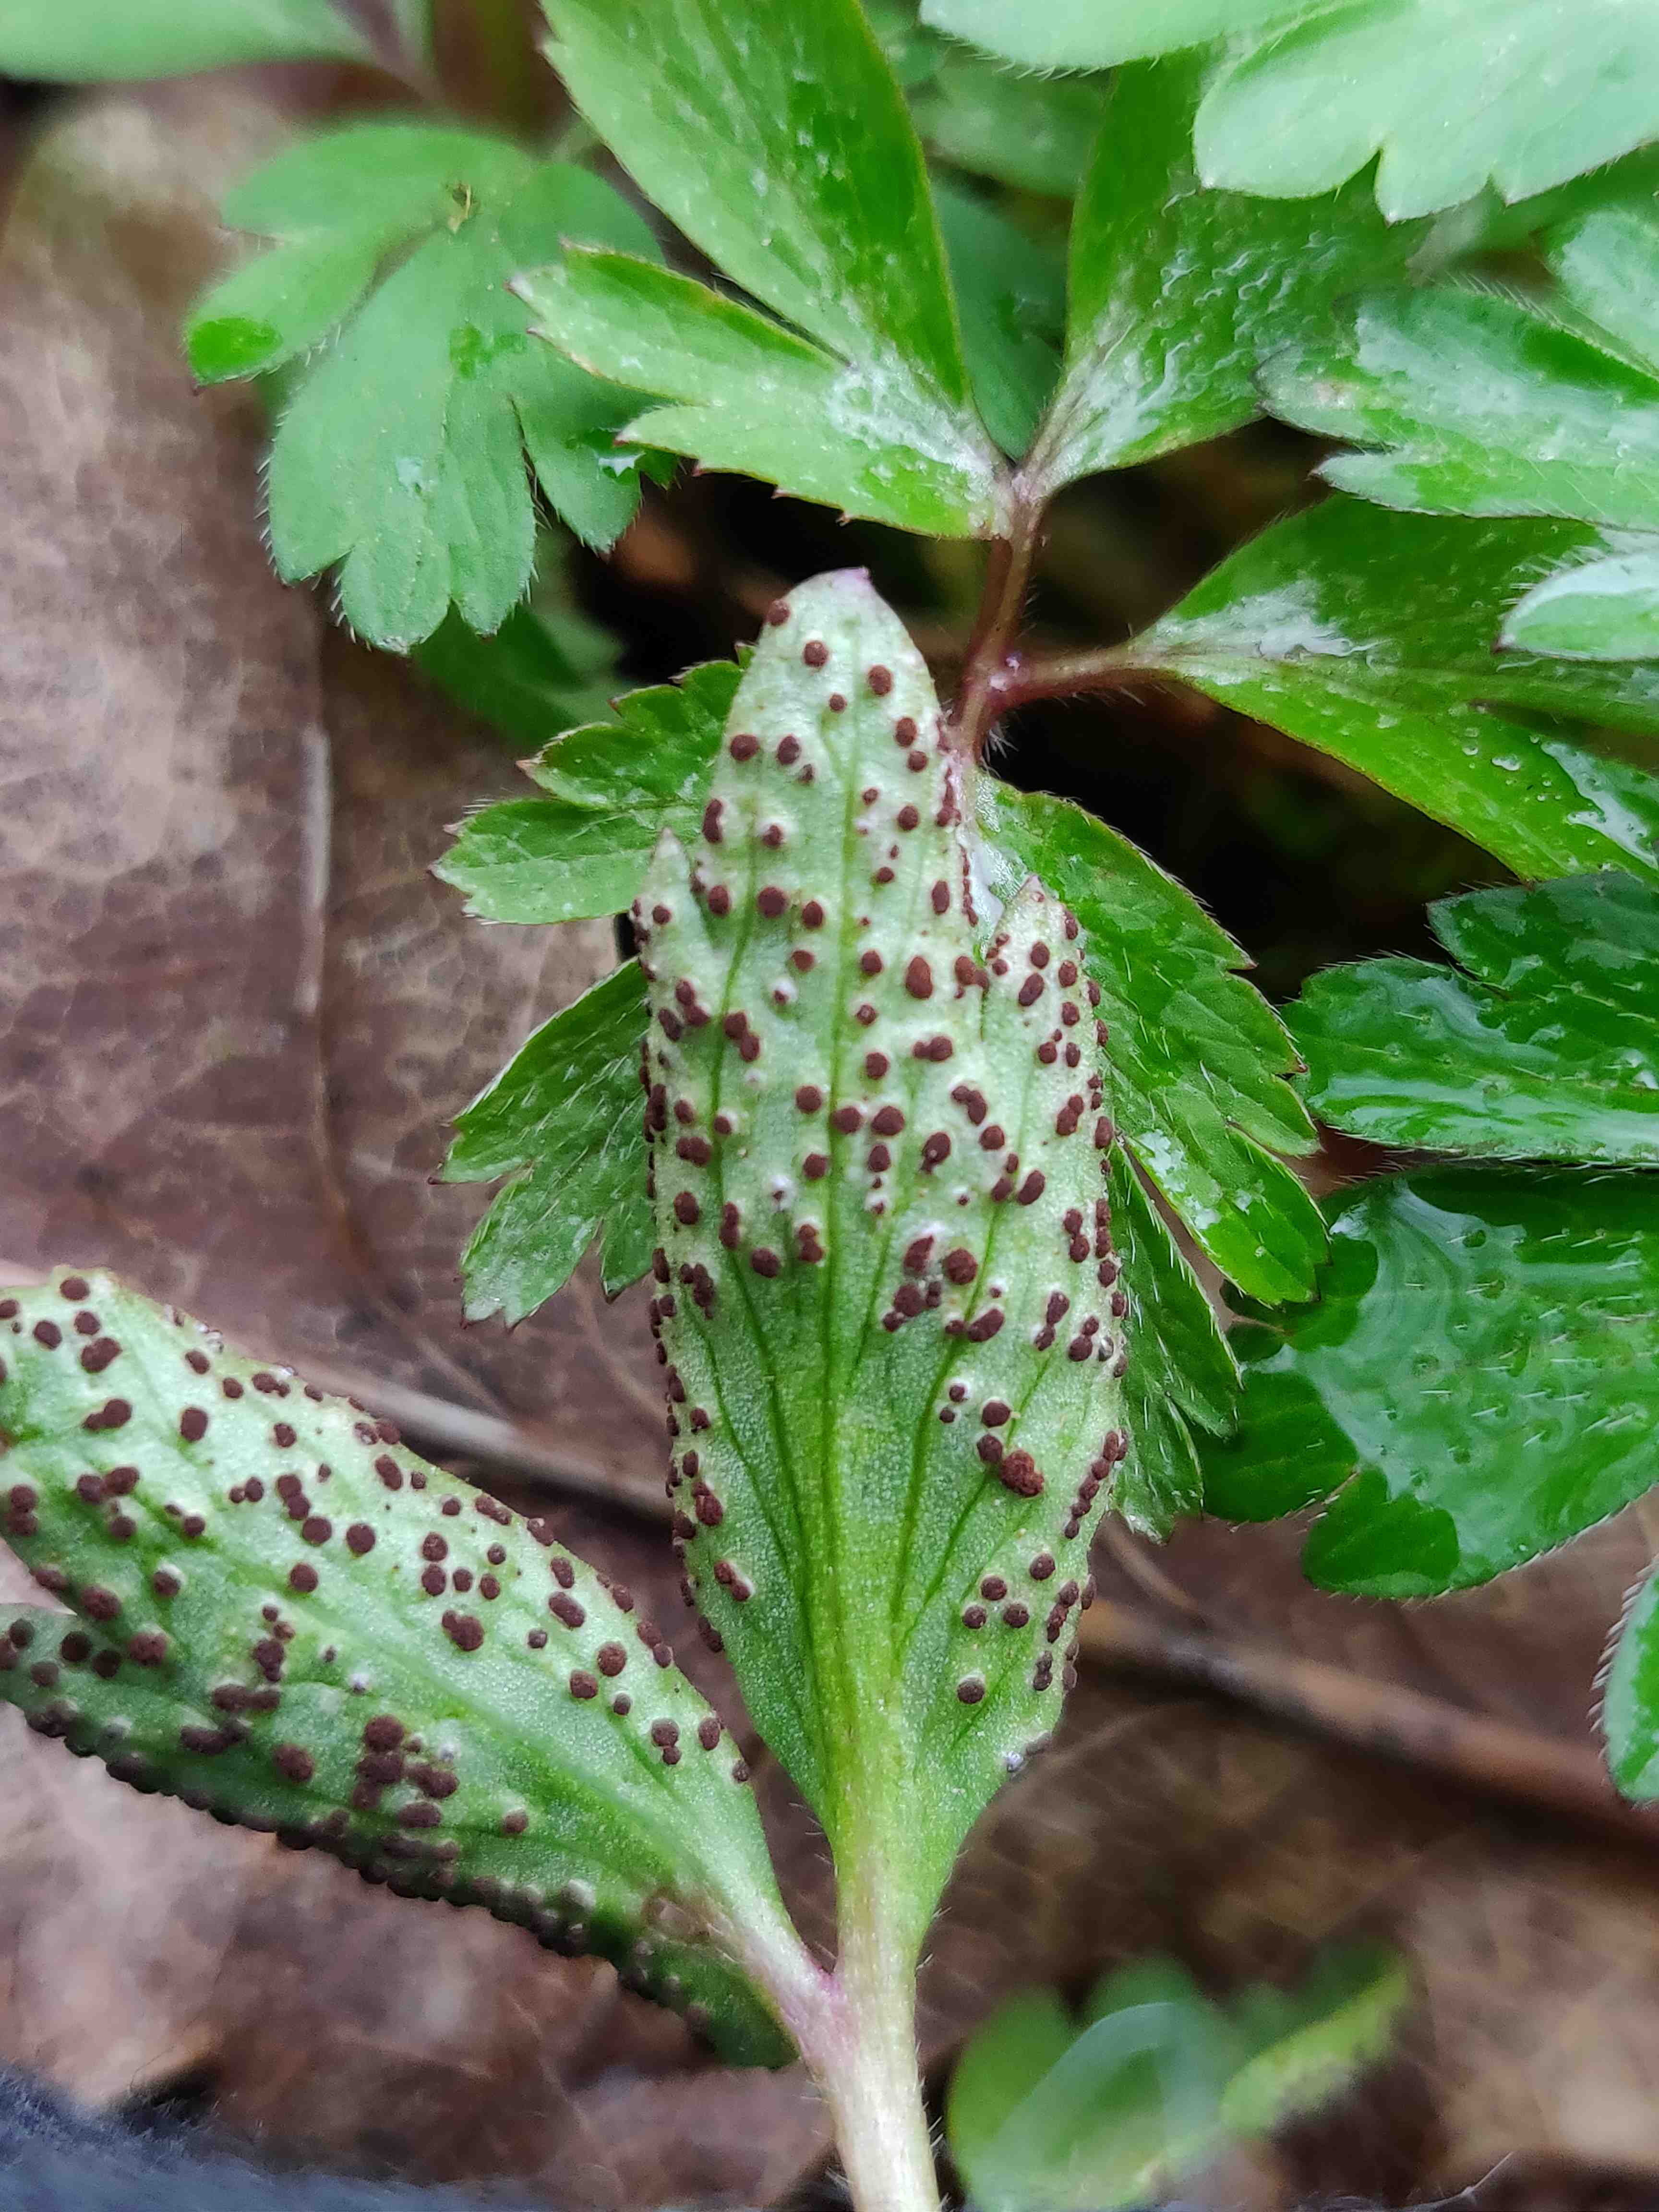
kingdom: Fungi
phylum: Basidiomycota
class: Pucciniomycetes
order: Pucciniales
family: Tranzscheliaceae
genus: Tranzschelia
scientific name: Tranzschelia anemones
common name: anemone-knæksporerust
